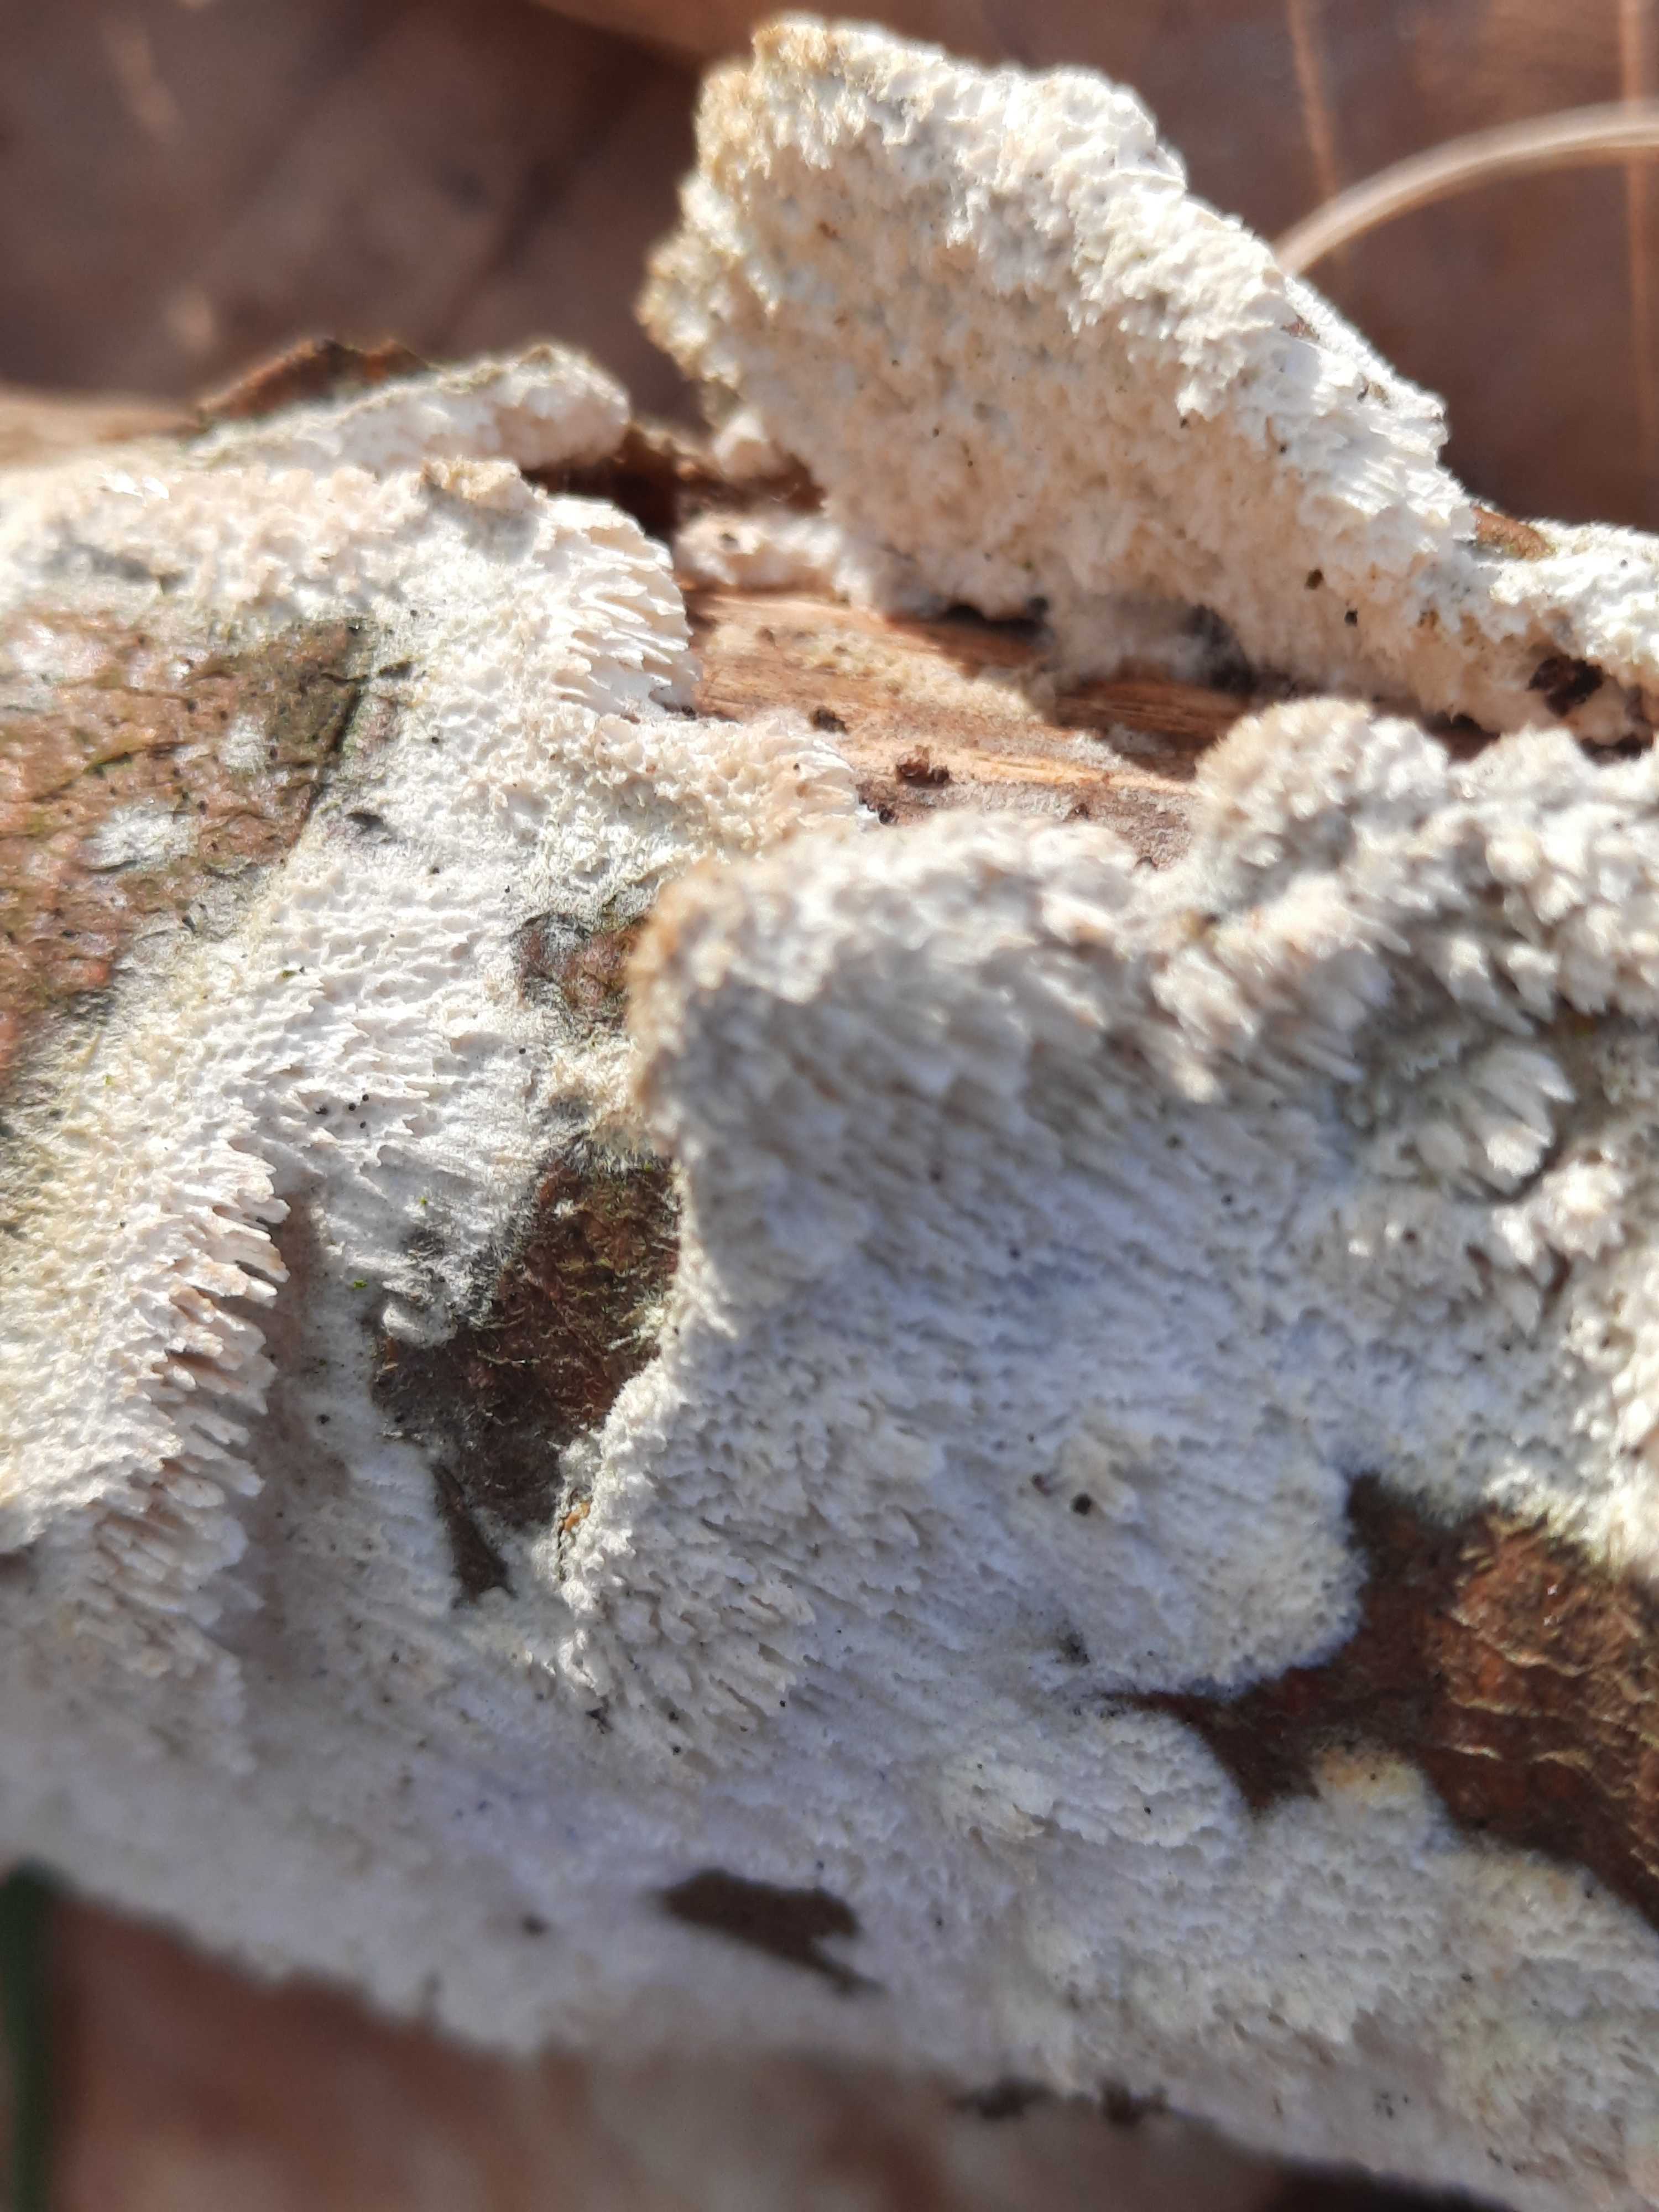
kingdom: Fungi
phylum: Basidiomycota
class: Agaricomycetes
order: Hymenochaetales
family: Schizoporaceae
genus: Schizopora
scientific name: Schizopora paradoxa
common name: hvid tandsvamp
